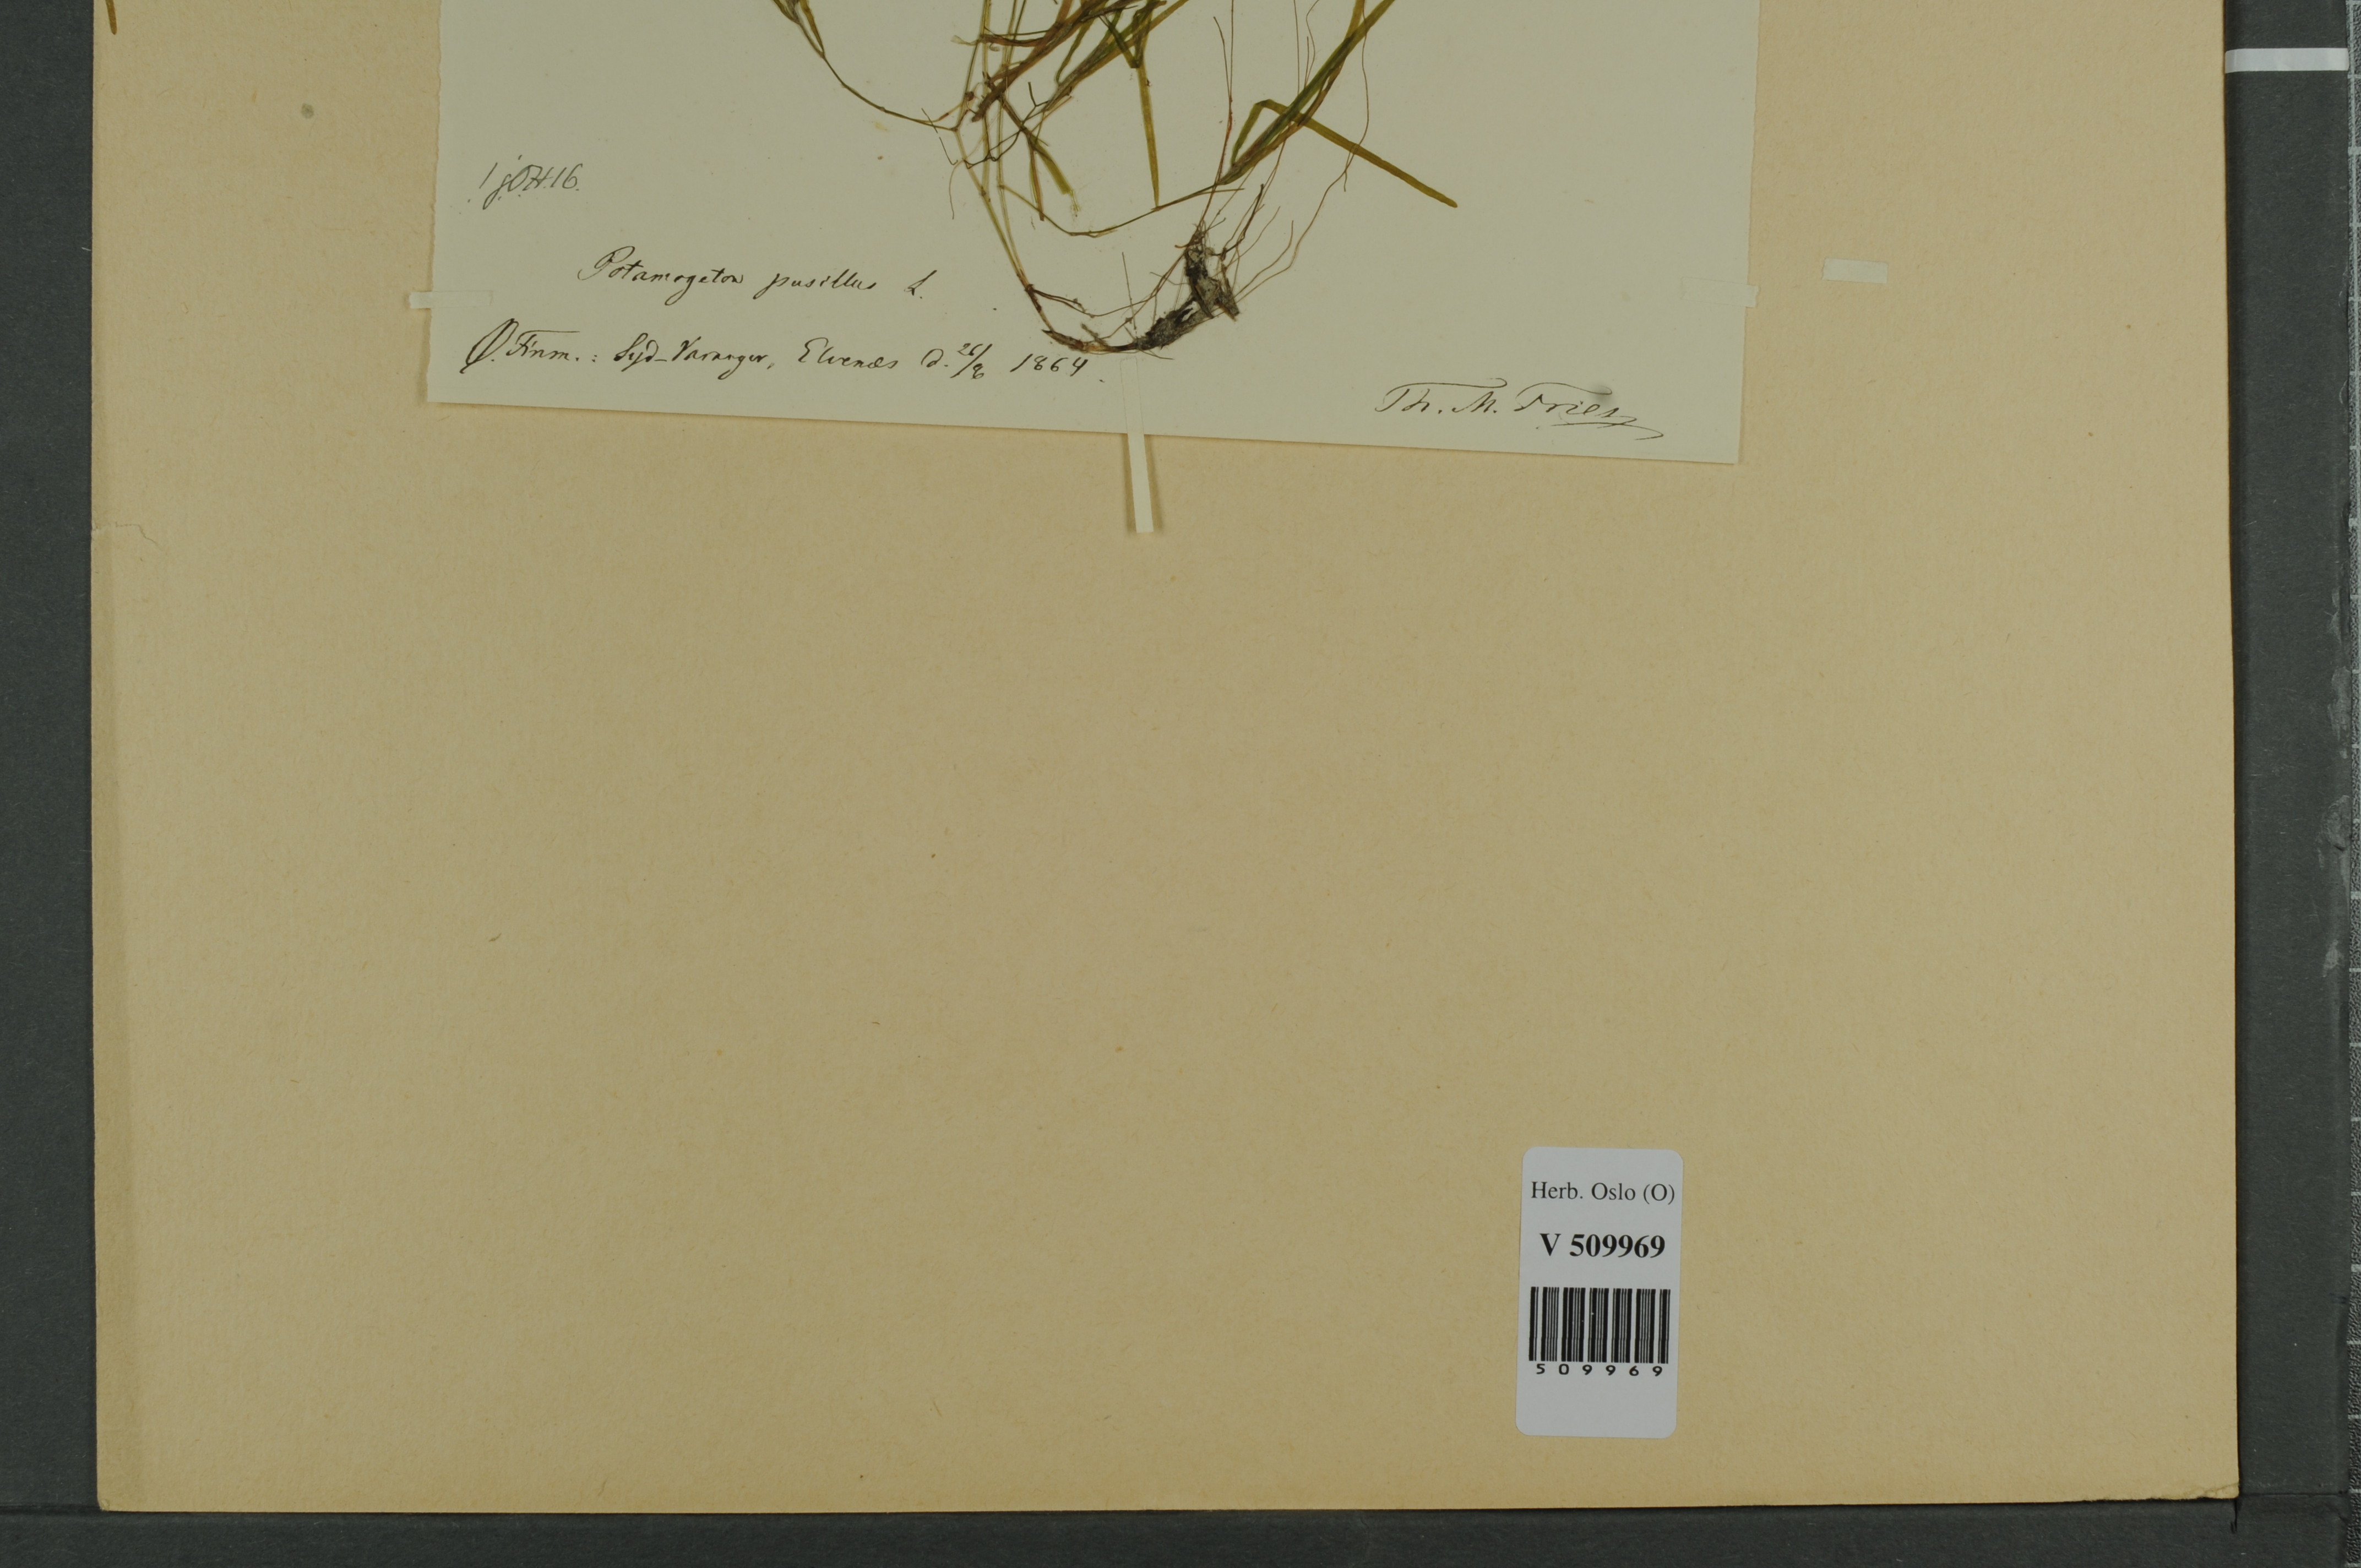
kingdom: Plantae
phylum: Tracheophyta
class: Liliopsida
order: Alismatales
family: Potamogetonaceae
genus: Potamogeton
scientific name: Potamogeton berchtoldii
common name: Small pondweed
